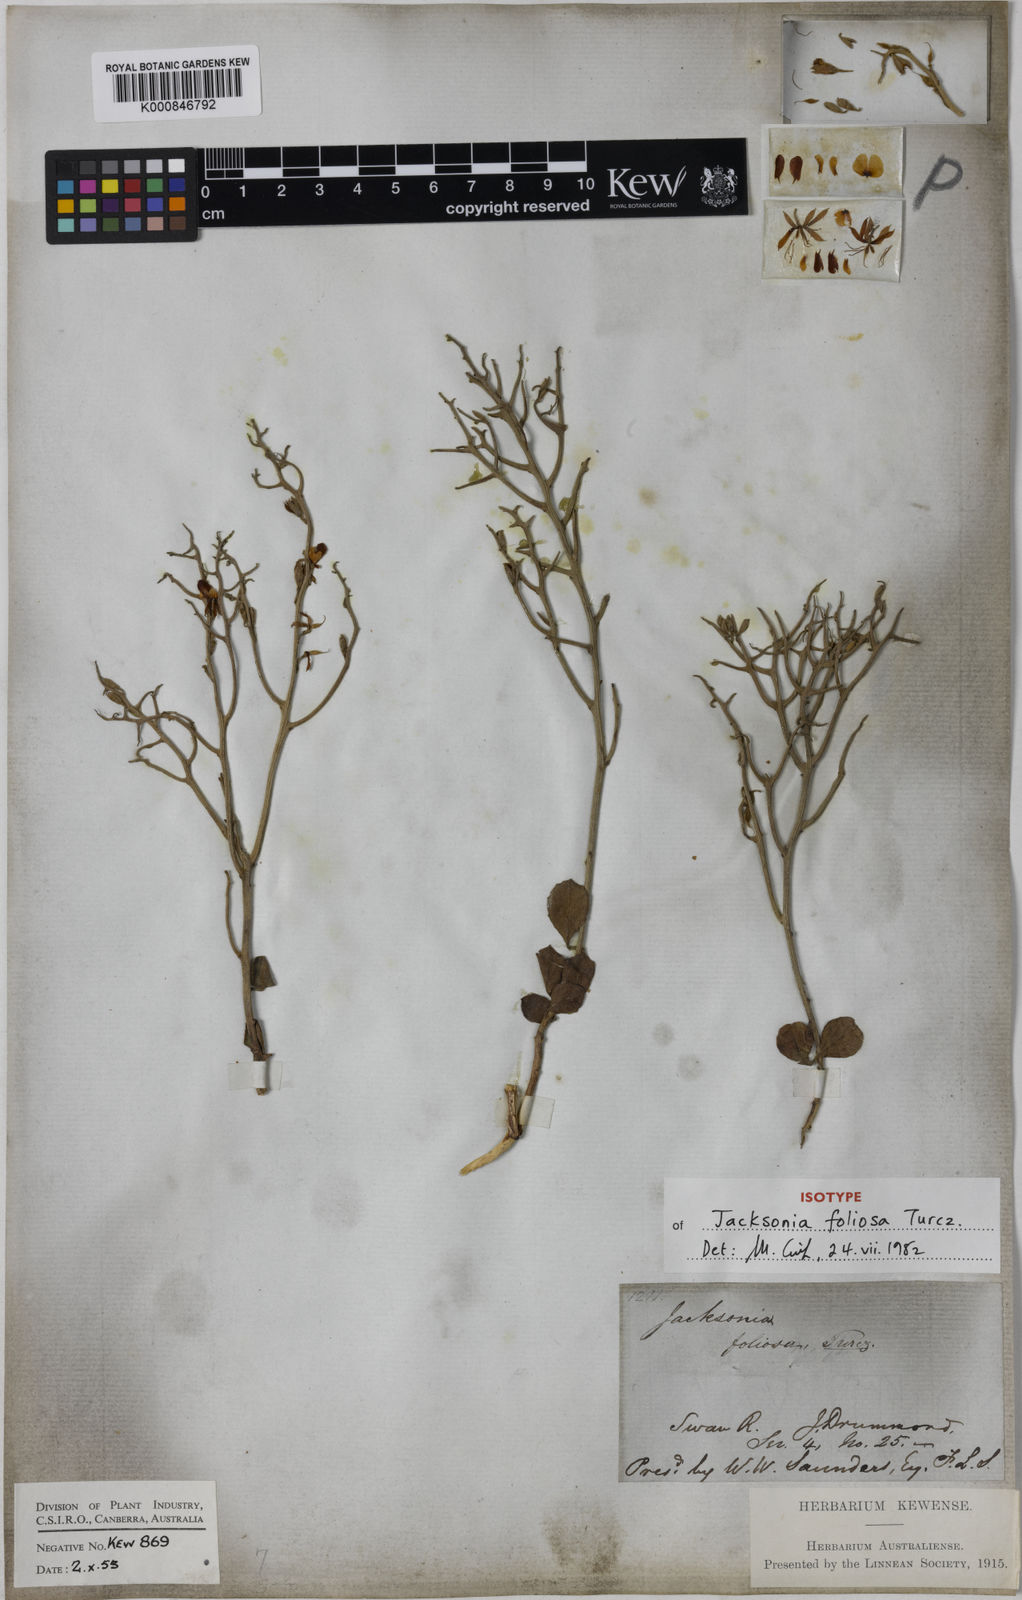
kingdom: Plantae
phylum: Tracheophyta
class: Magnoliopsida
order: Fabales
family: Fabaceae
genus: Jacksonia
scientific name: Jacksonia foliosa
